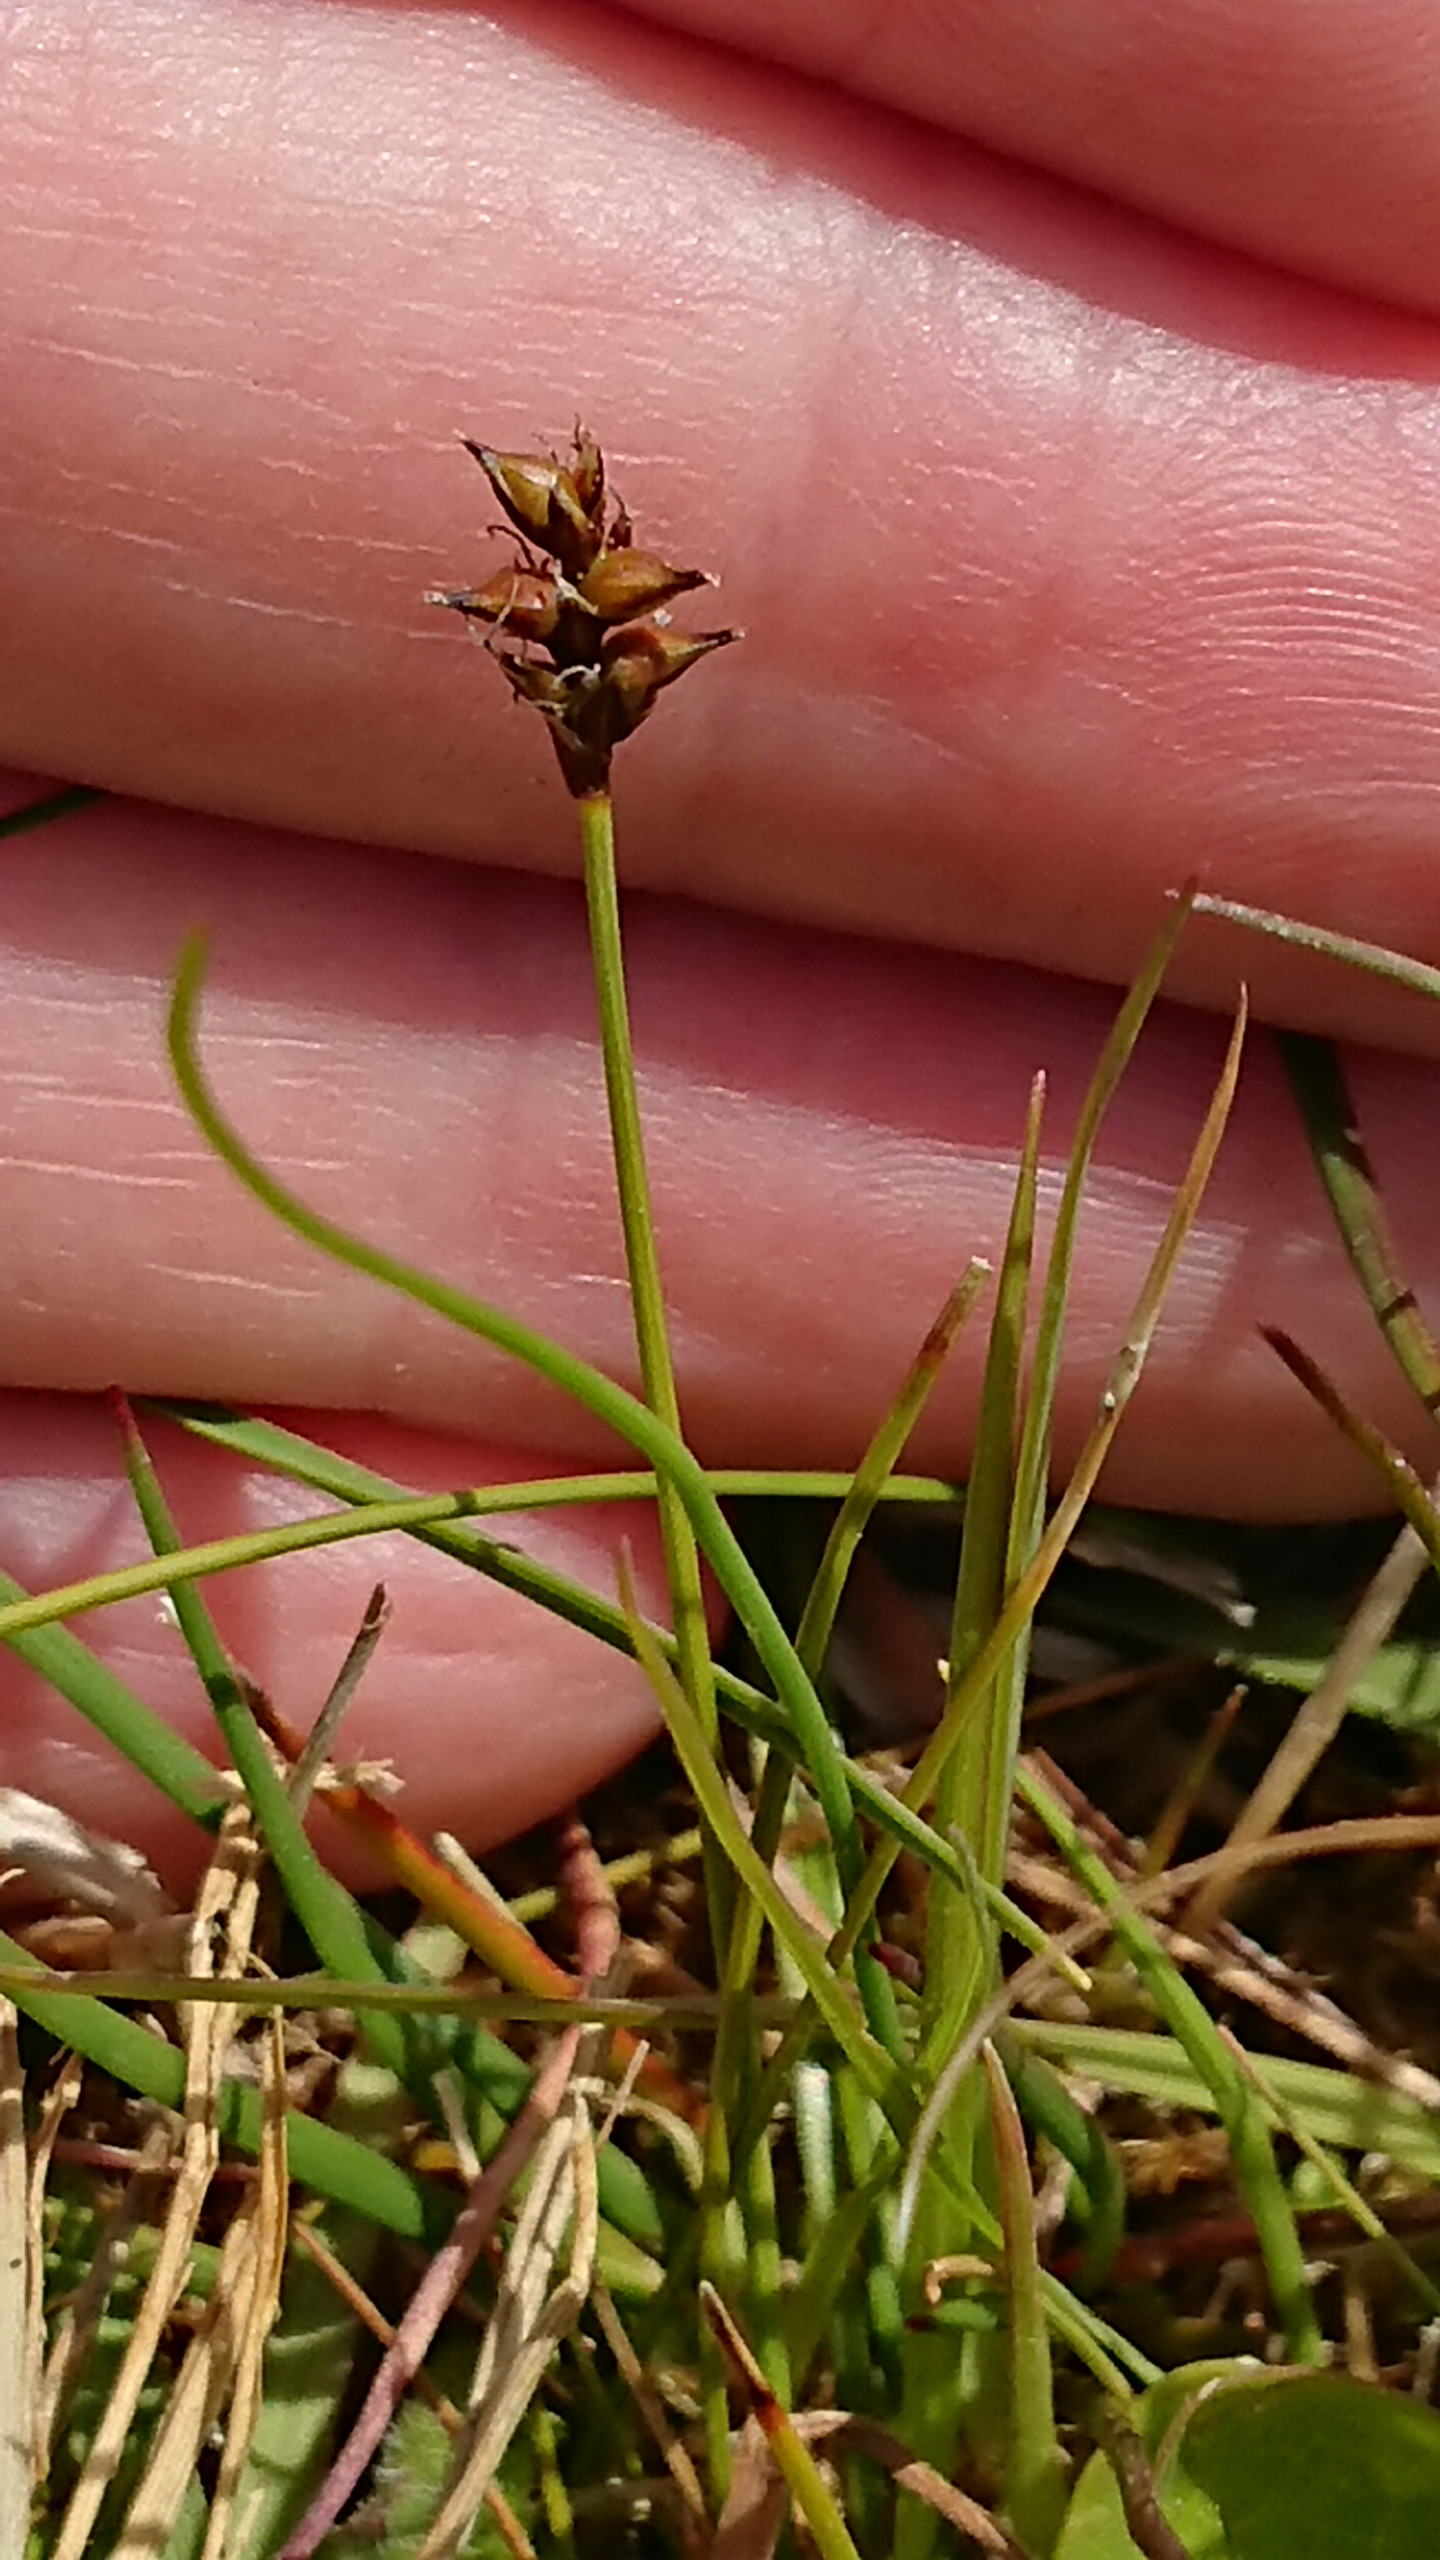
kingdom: Plantae
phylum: Tracheophyta
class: Liliopsida
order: Poales
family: Cyperaceae
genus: Carex
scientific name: Carex dioica
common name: Tvebo star
